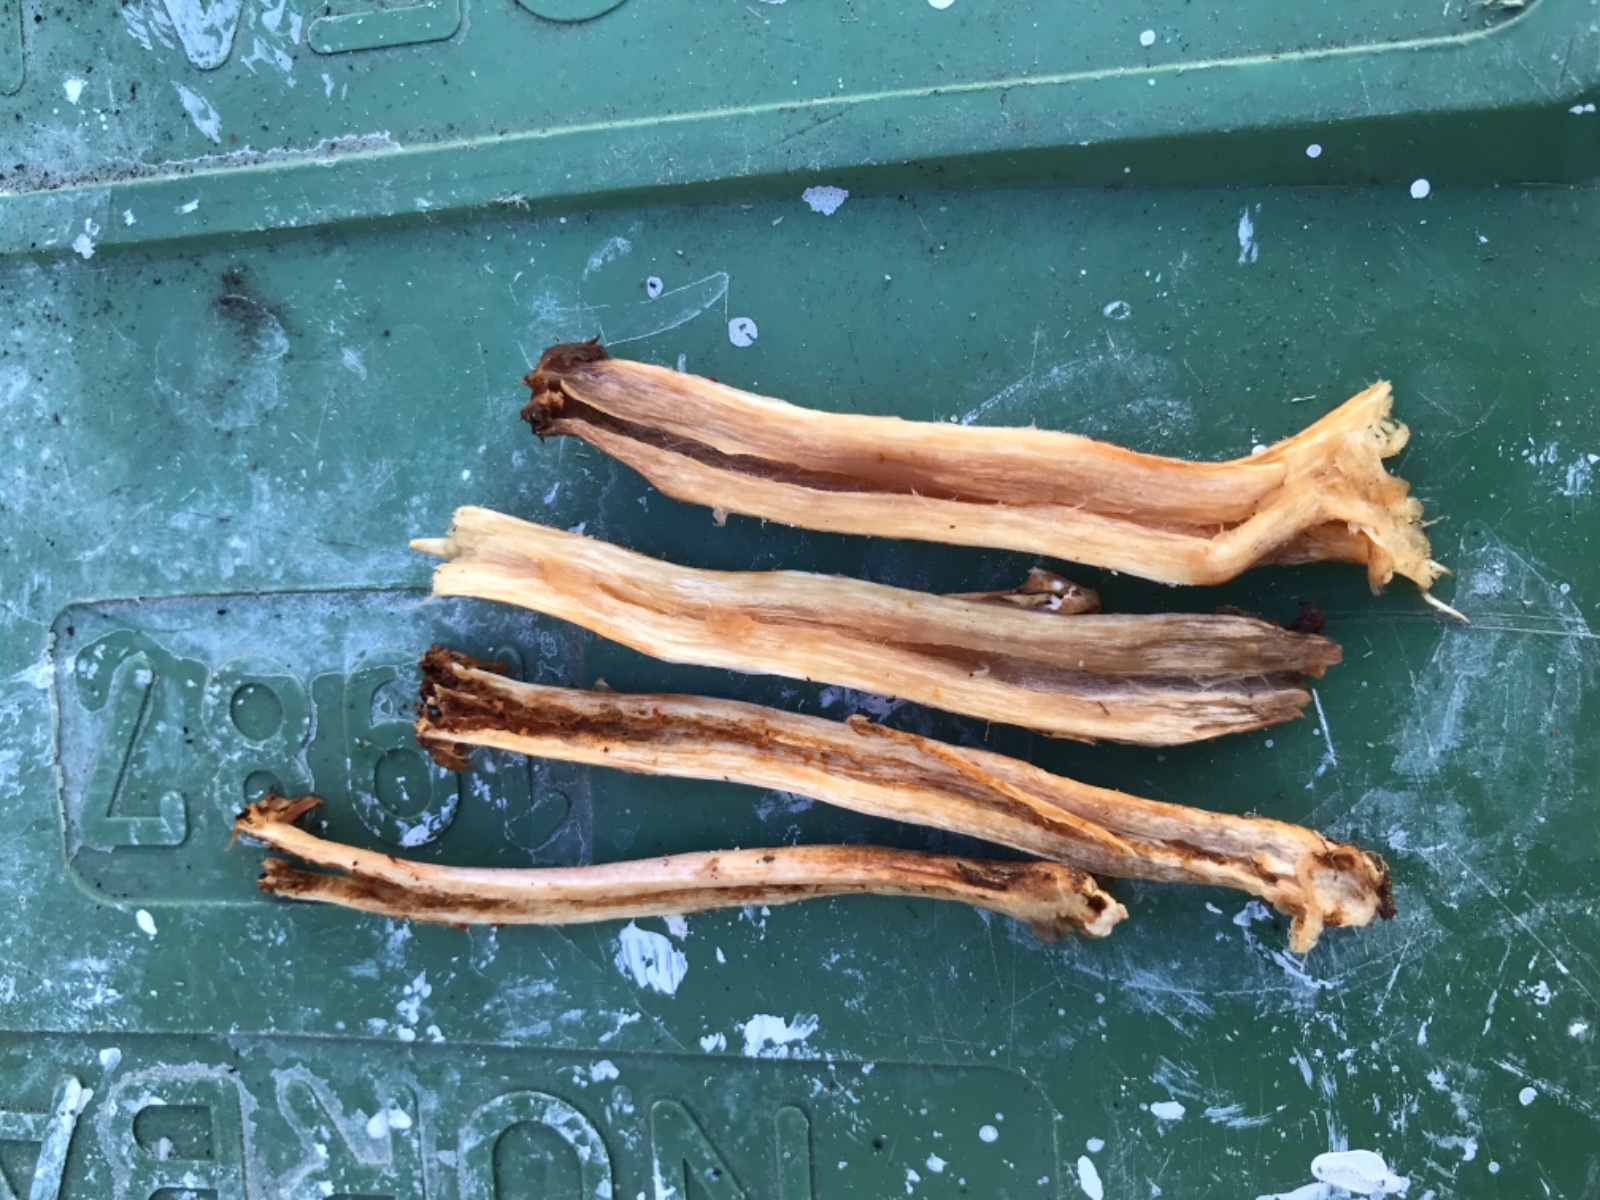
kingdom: Fungi
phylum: Basidiomycota
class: Agaricomycetes
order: Agaricales
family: Cortinariaceae
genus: Cortinarius
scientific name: Cortinarius collinitus
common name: spættet slørhat
